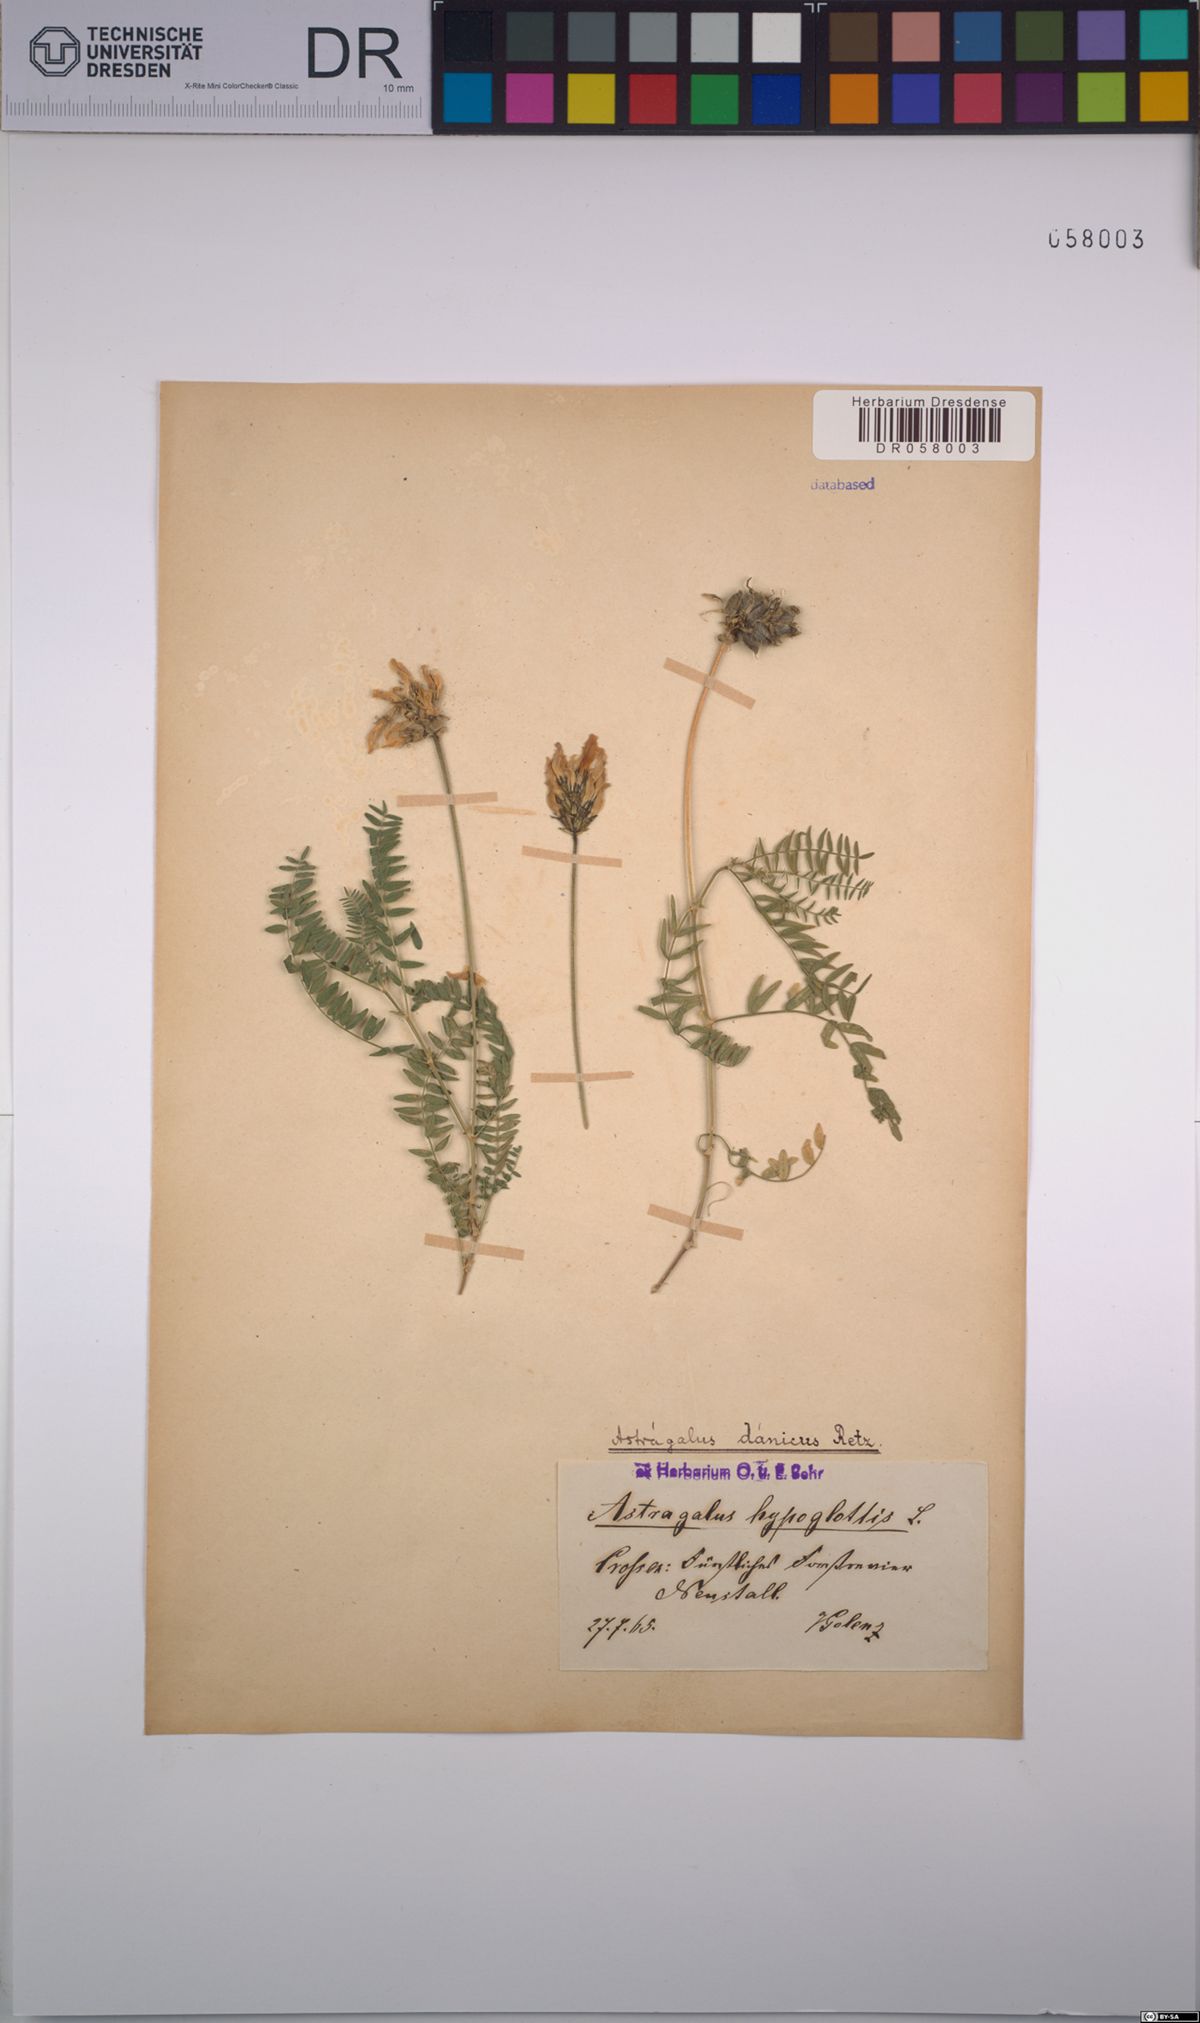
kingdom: Plantae
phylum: Tracheophyta
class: Magnoliopsida
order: Fabales
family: Fabaceae
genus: Astragalus
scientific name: Astragalus danicus
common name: Purple milk-vetch
